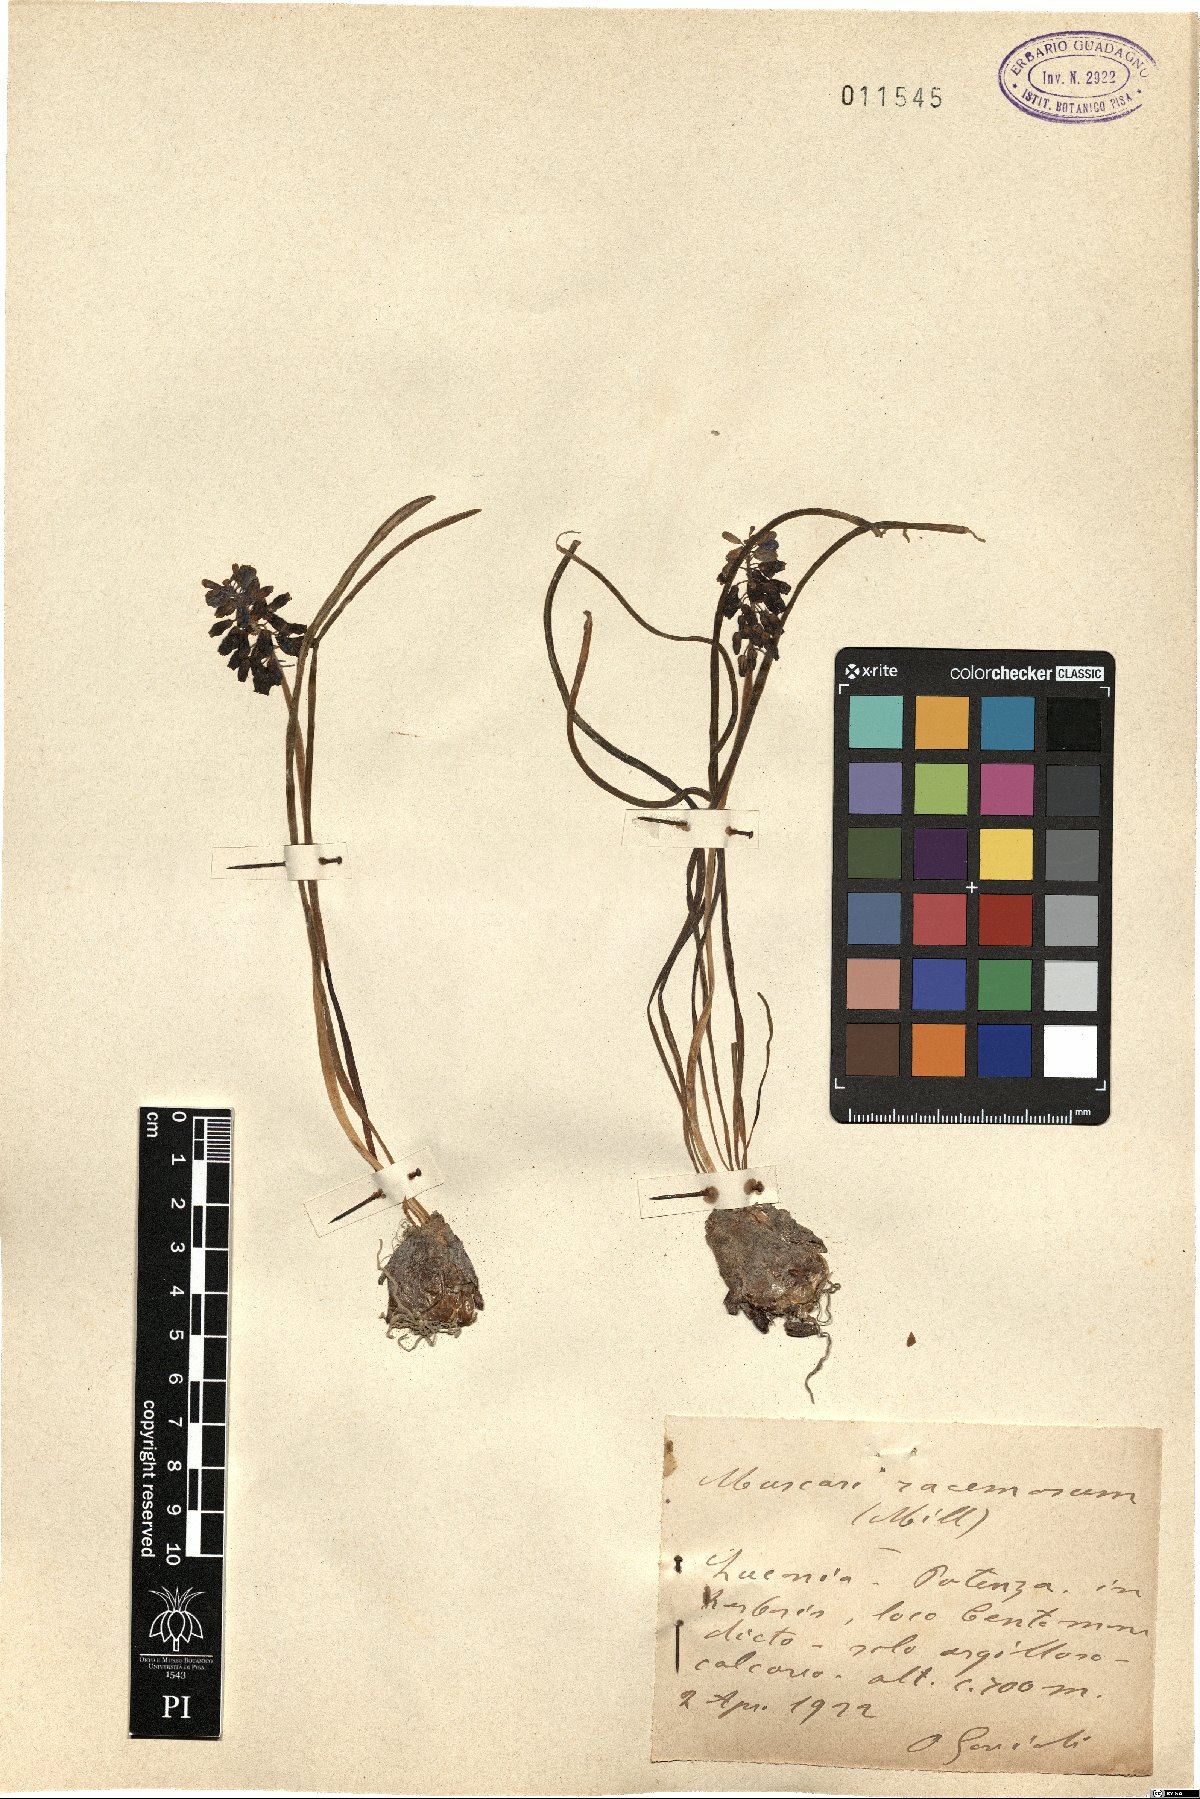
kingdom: Plantae
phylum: Tracheophyta
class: Liliopsida
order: Asparagales
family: Asparagaceae
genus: Muscarimia
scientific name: Muscarimia muscari
